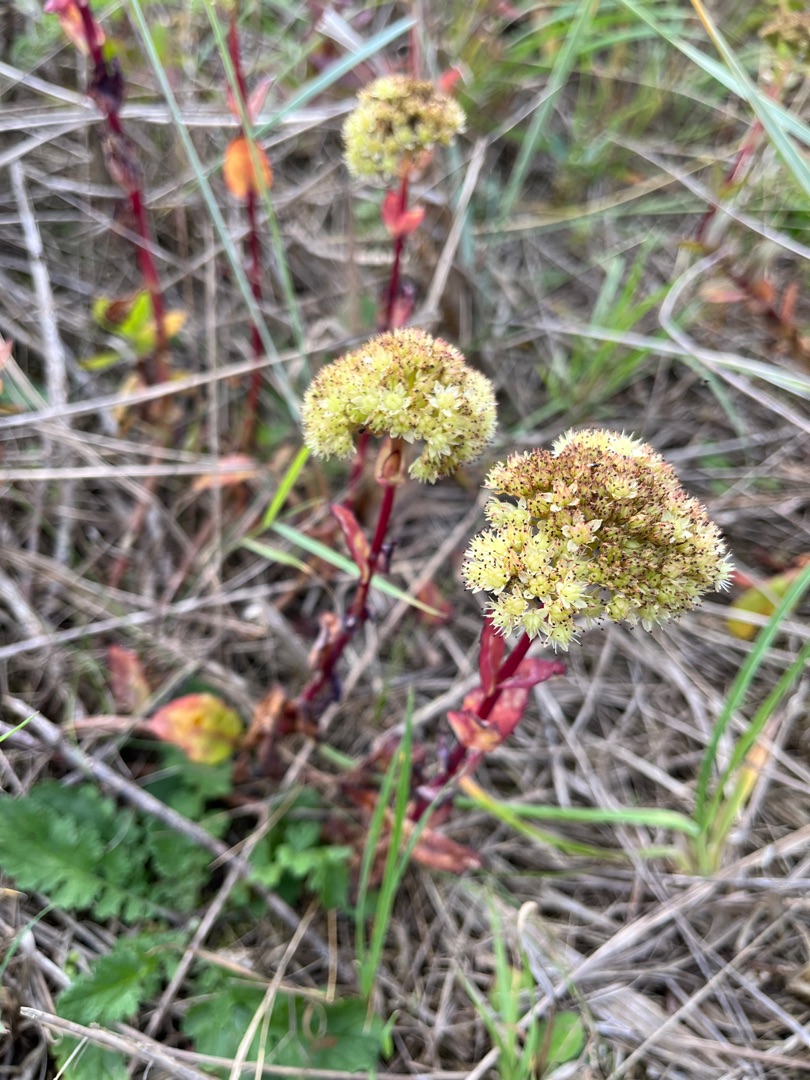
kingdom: Plantae
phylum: Tracheophyta
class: Magnoliopsida
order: Saxifragales
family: Crassulaceae
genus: Hylotelephium
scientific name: Hylotelephium maximum
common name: Almindelig sankthansurt
